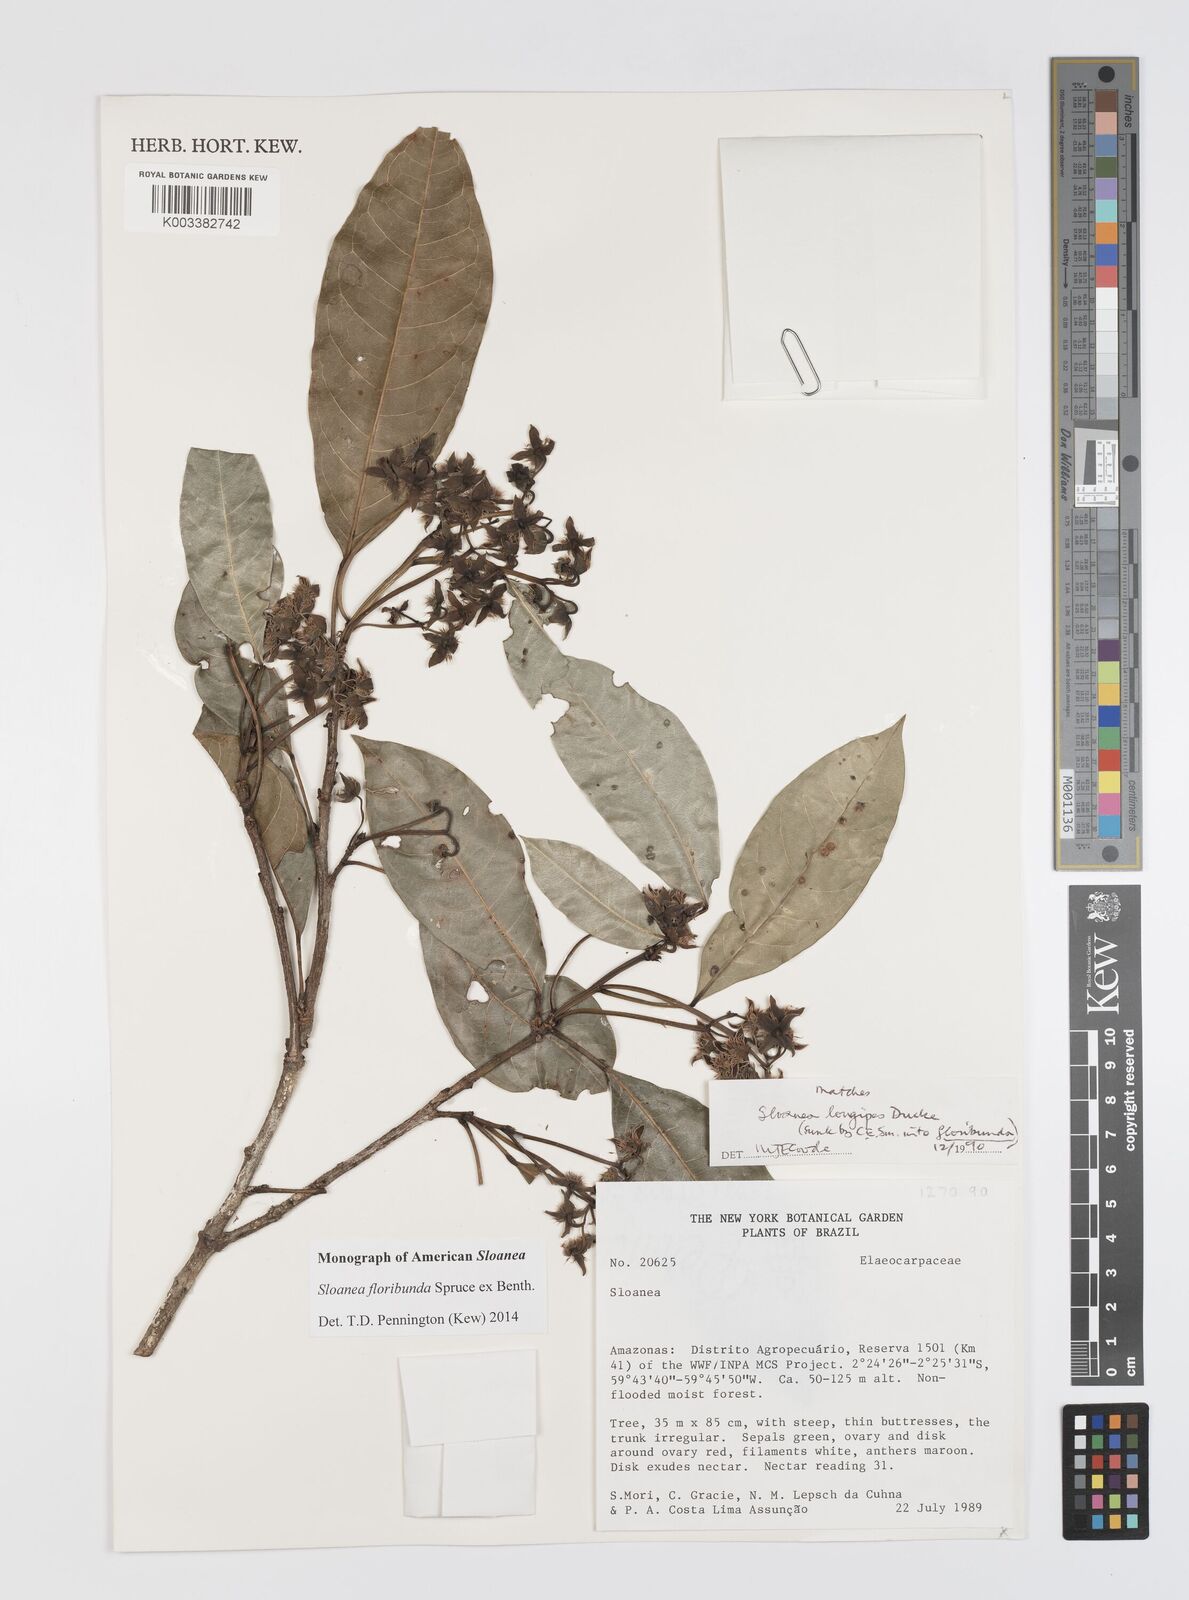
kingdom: Plantae
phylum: Tracheophyta
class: Magnoliopsida
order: Oxalidales
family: Elaeocarpaceae
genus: Sloanea
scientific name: Sloanea floribunda
